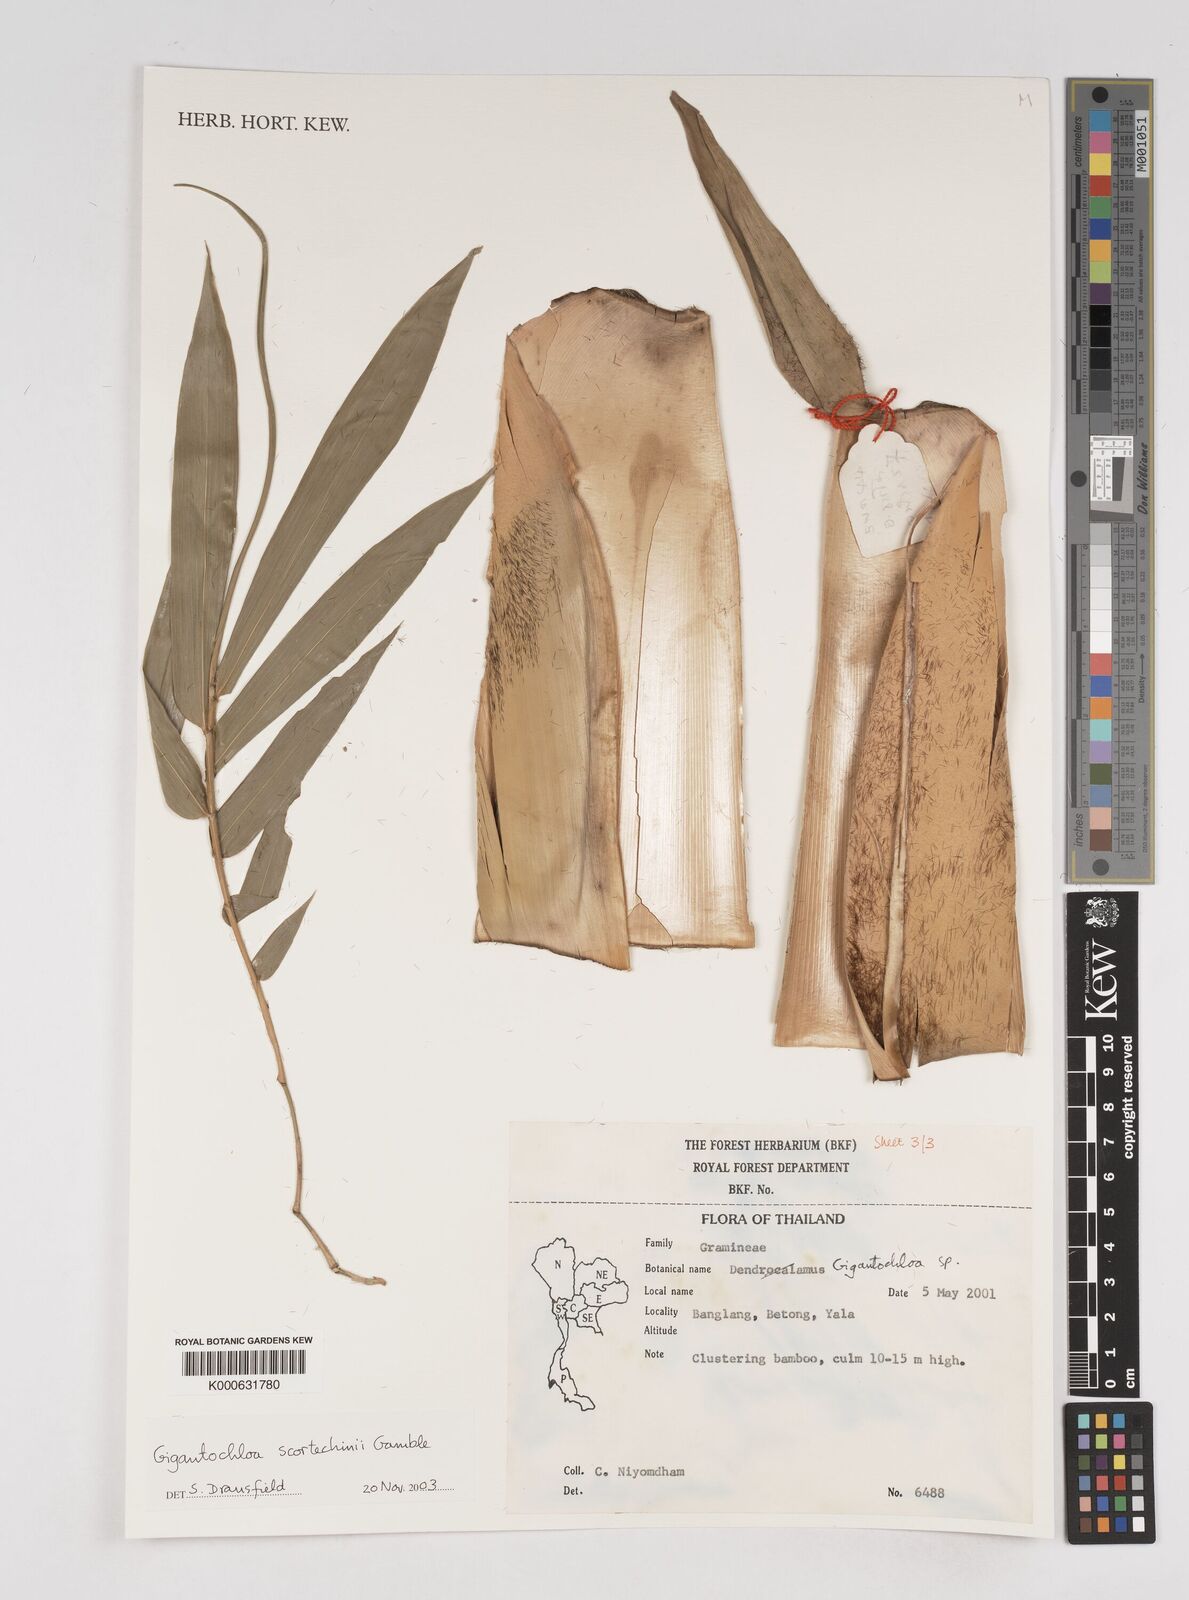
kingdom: Plantae
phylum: Tracheophyta
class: Liliopsida
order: Poales
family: Poaceae
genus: Gigantochloa
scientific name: Gigantochloa scortechinii
